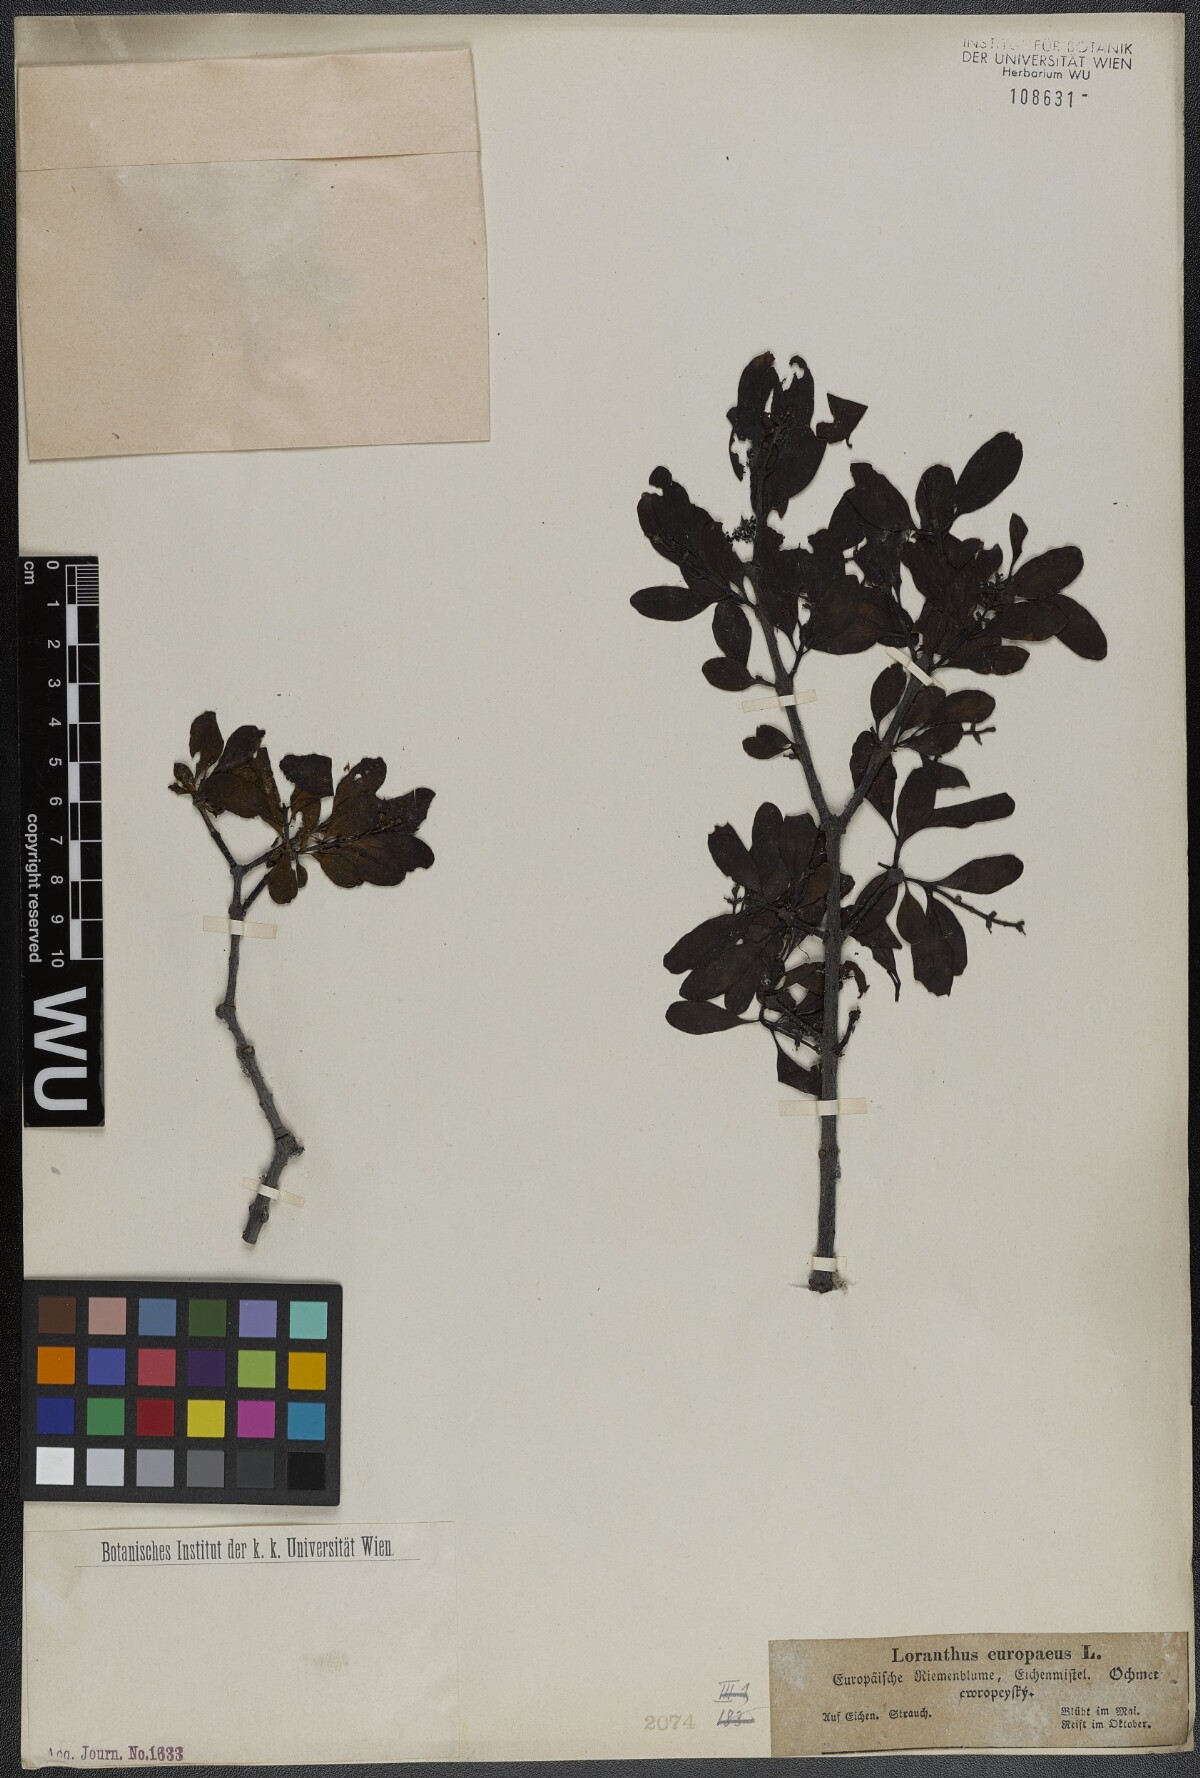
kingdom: Plantae
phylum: Tracheophyta
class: Magnoliopsida
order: Santalales
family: Loranthaceae
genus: Loranthus
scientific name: Loranthus europaeus
